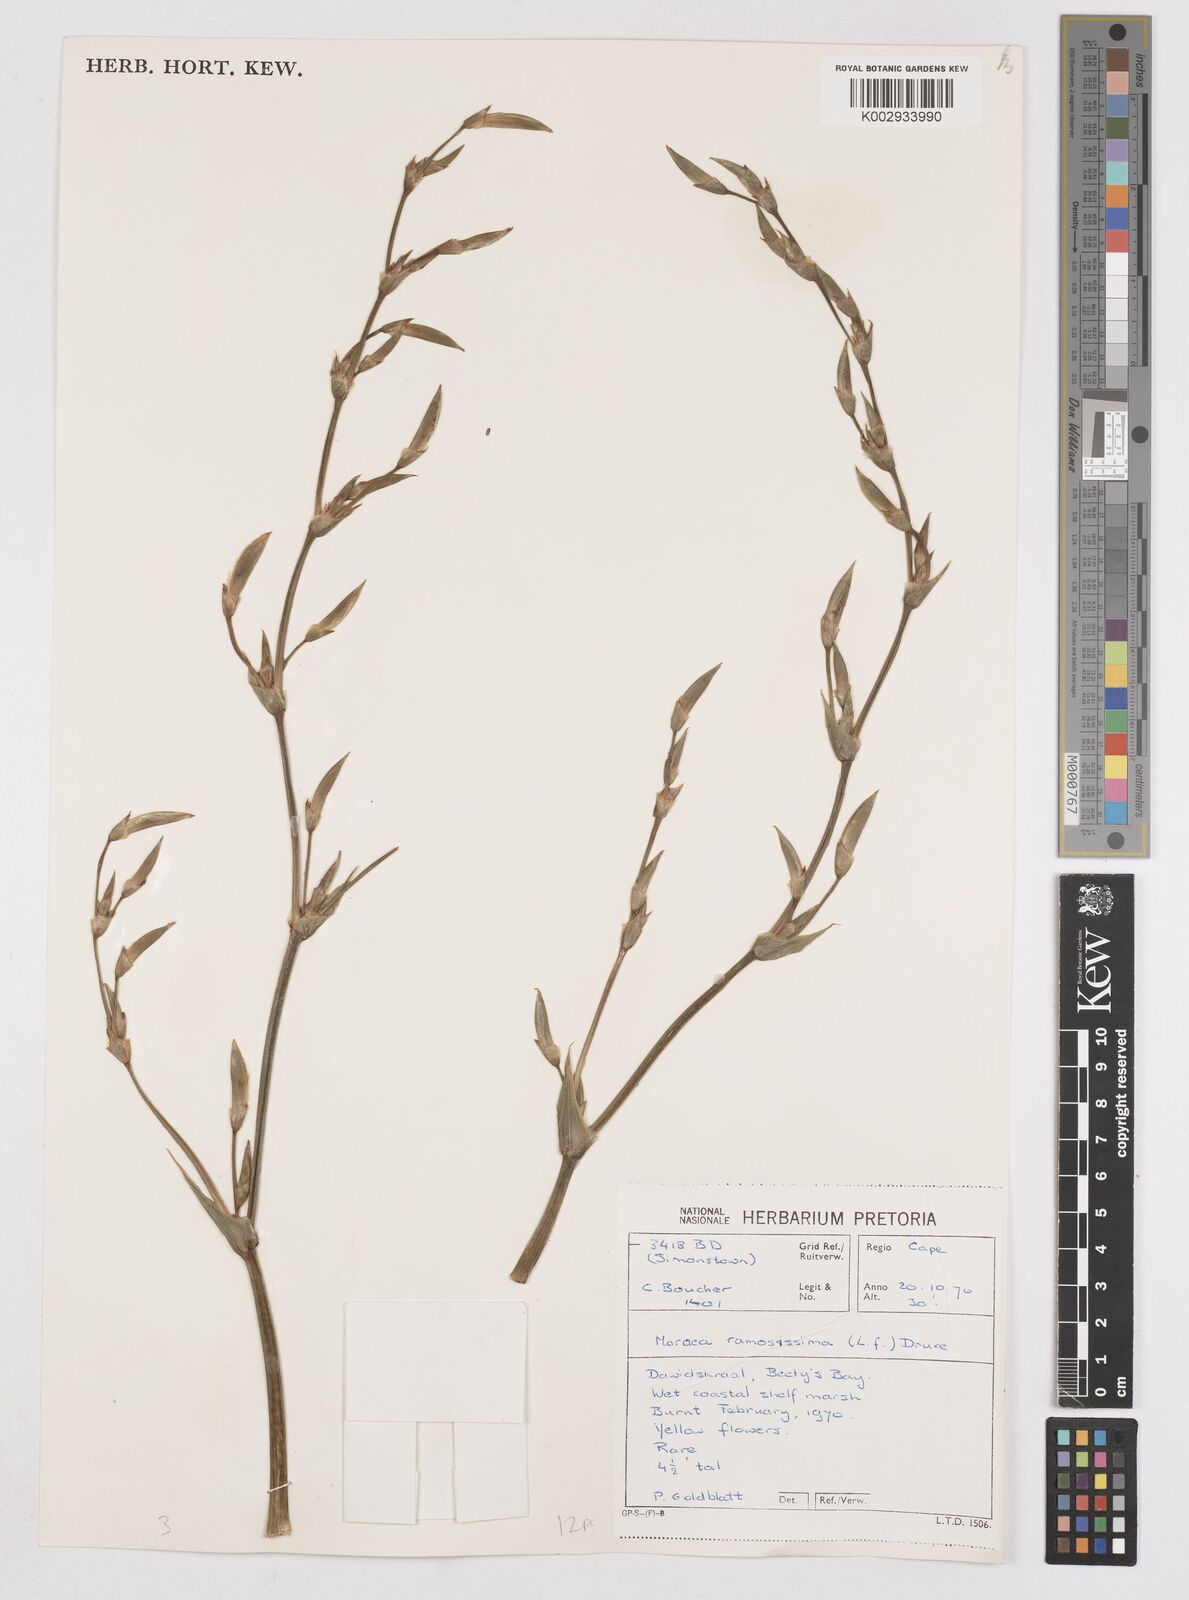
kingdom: Plantae
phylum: Tracheophyta
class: Liliopsida
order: Asparagales
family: Iridaceae
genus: Moraea
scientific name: Moraea ramosissima
